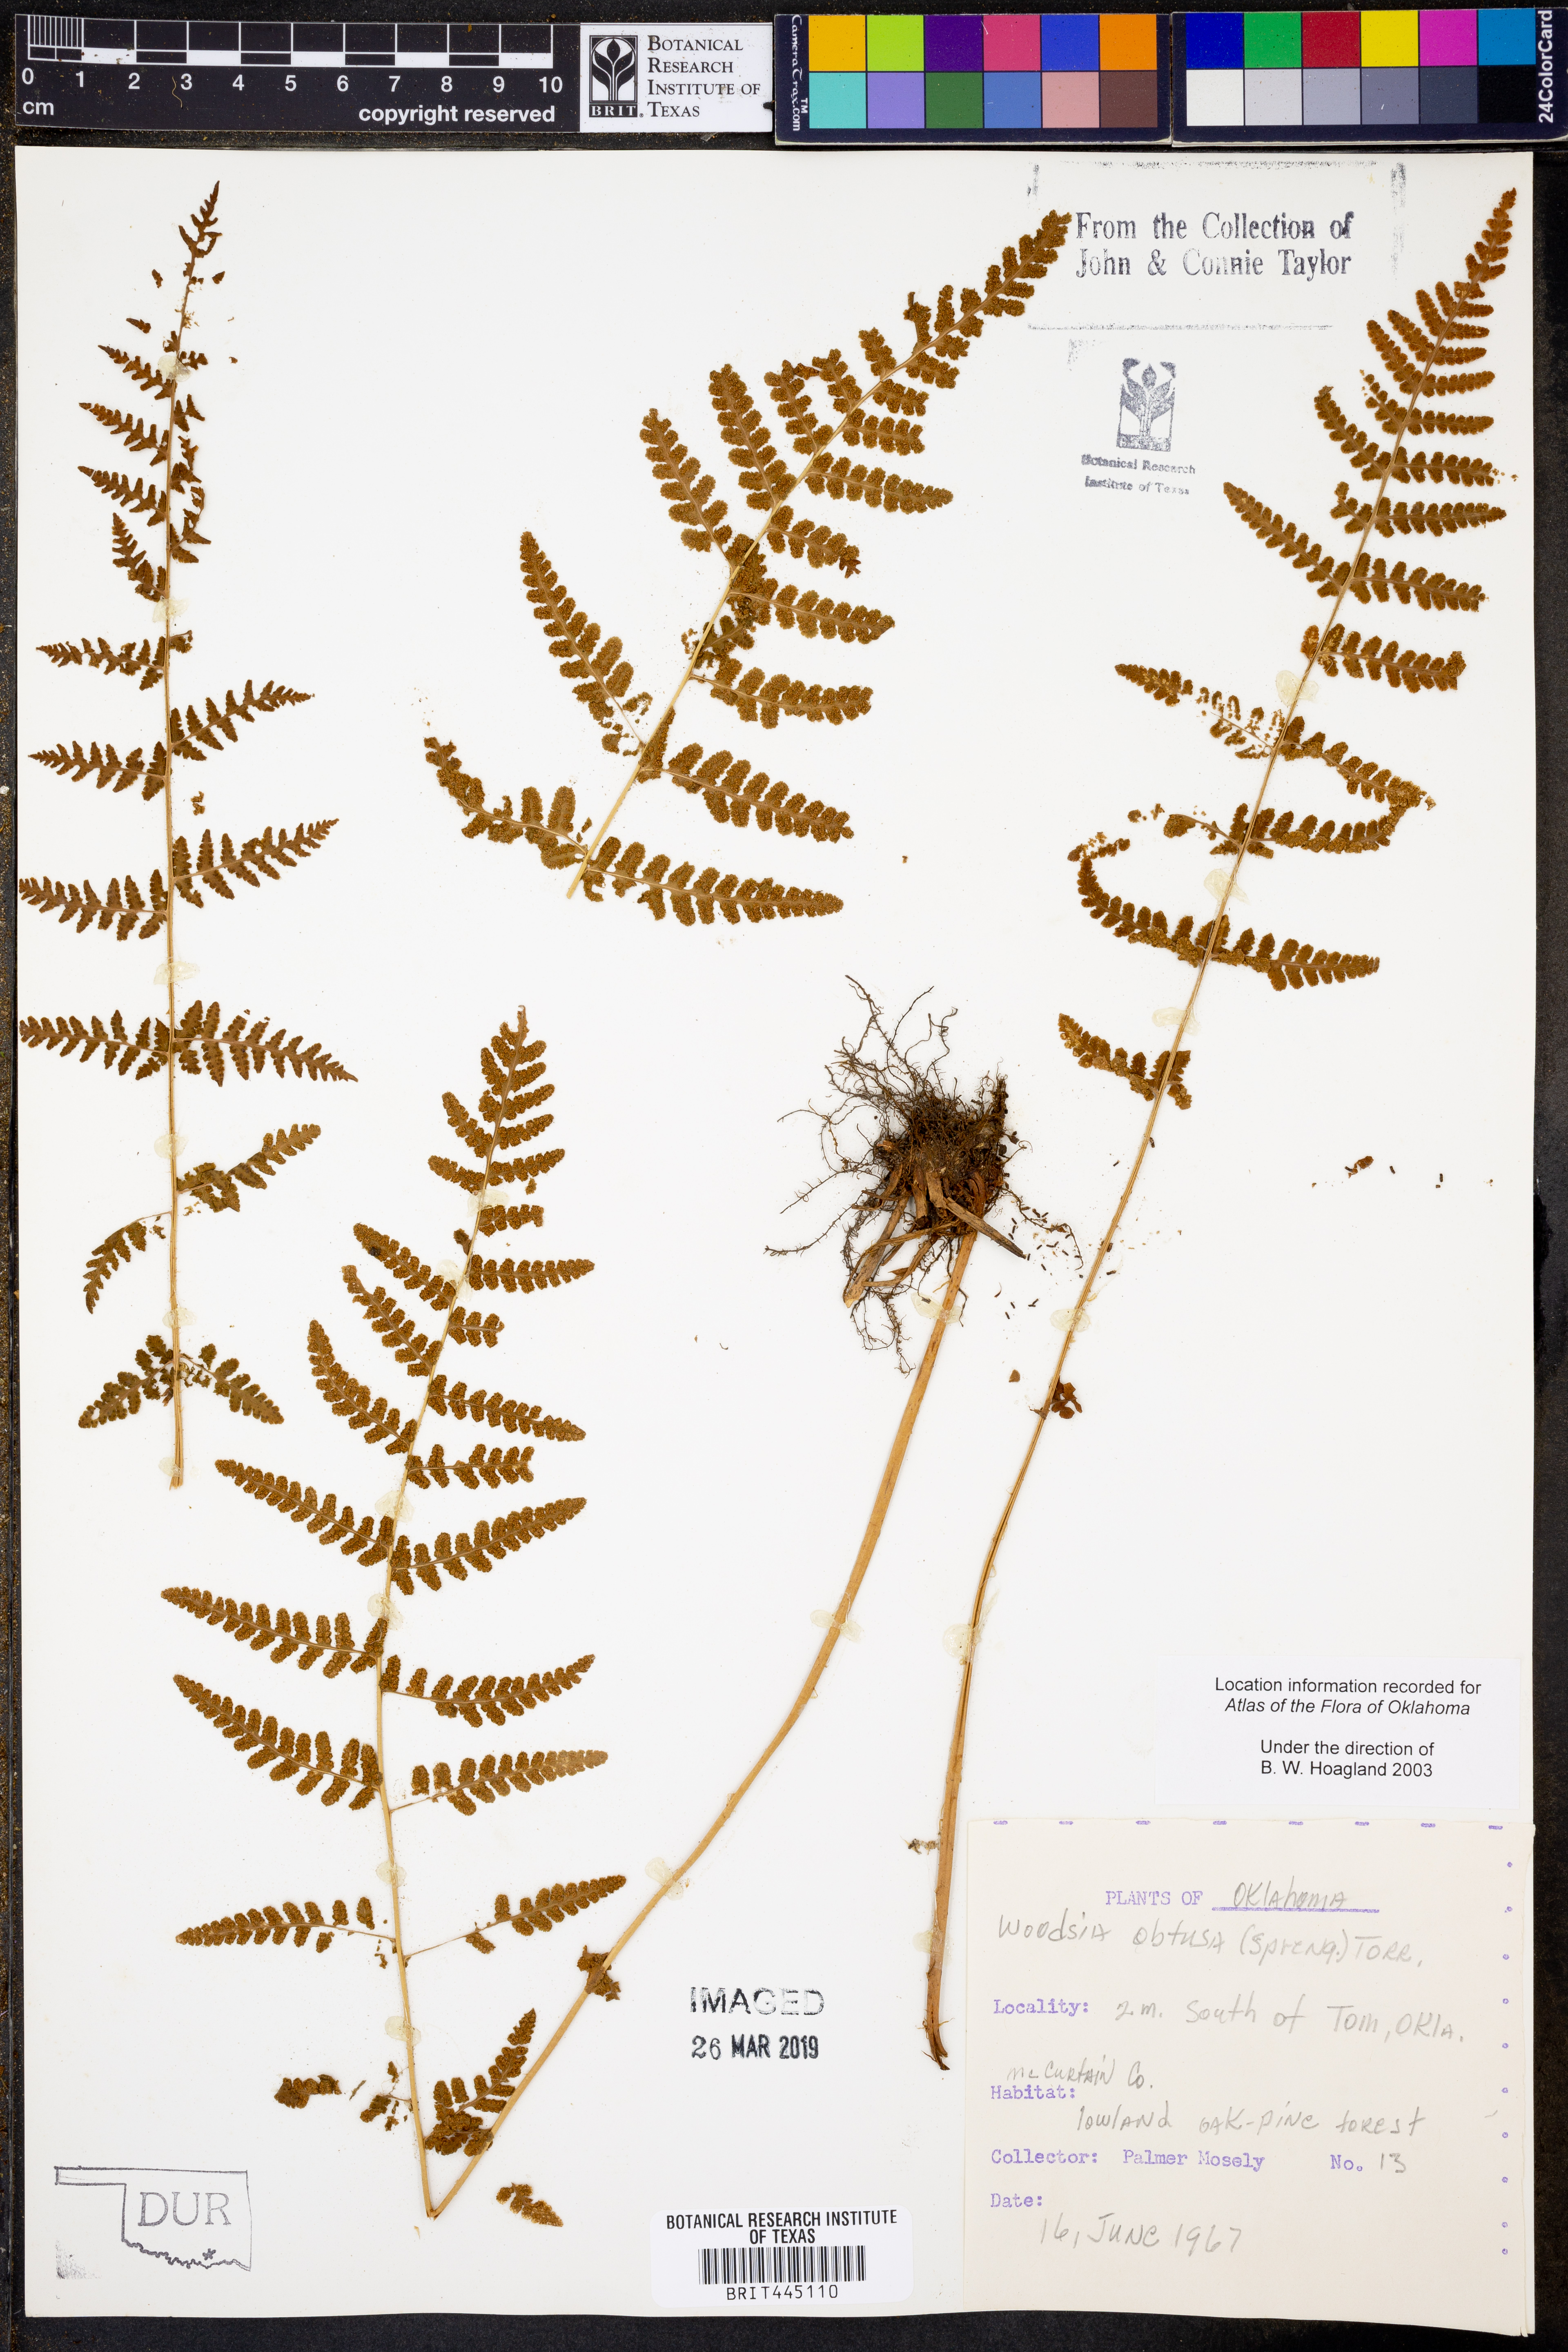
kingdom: Plantae
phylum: Tracheophyta
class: Polypodiopsida
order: Polypodiales
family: Woodsiaceae
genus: Physematium
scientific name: Physematium obtusum
